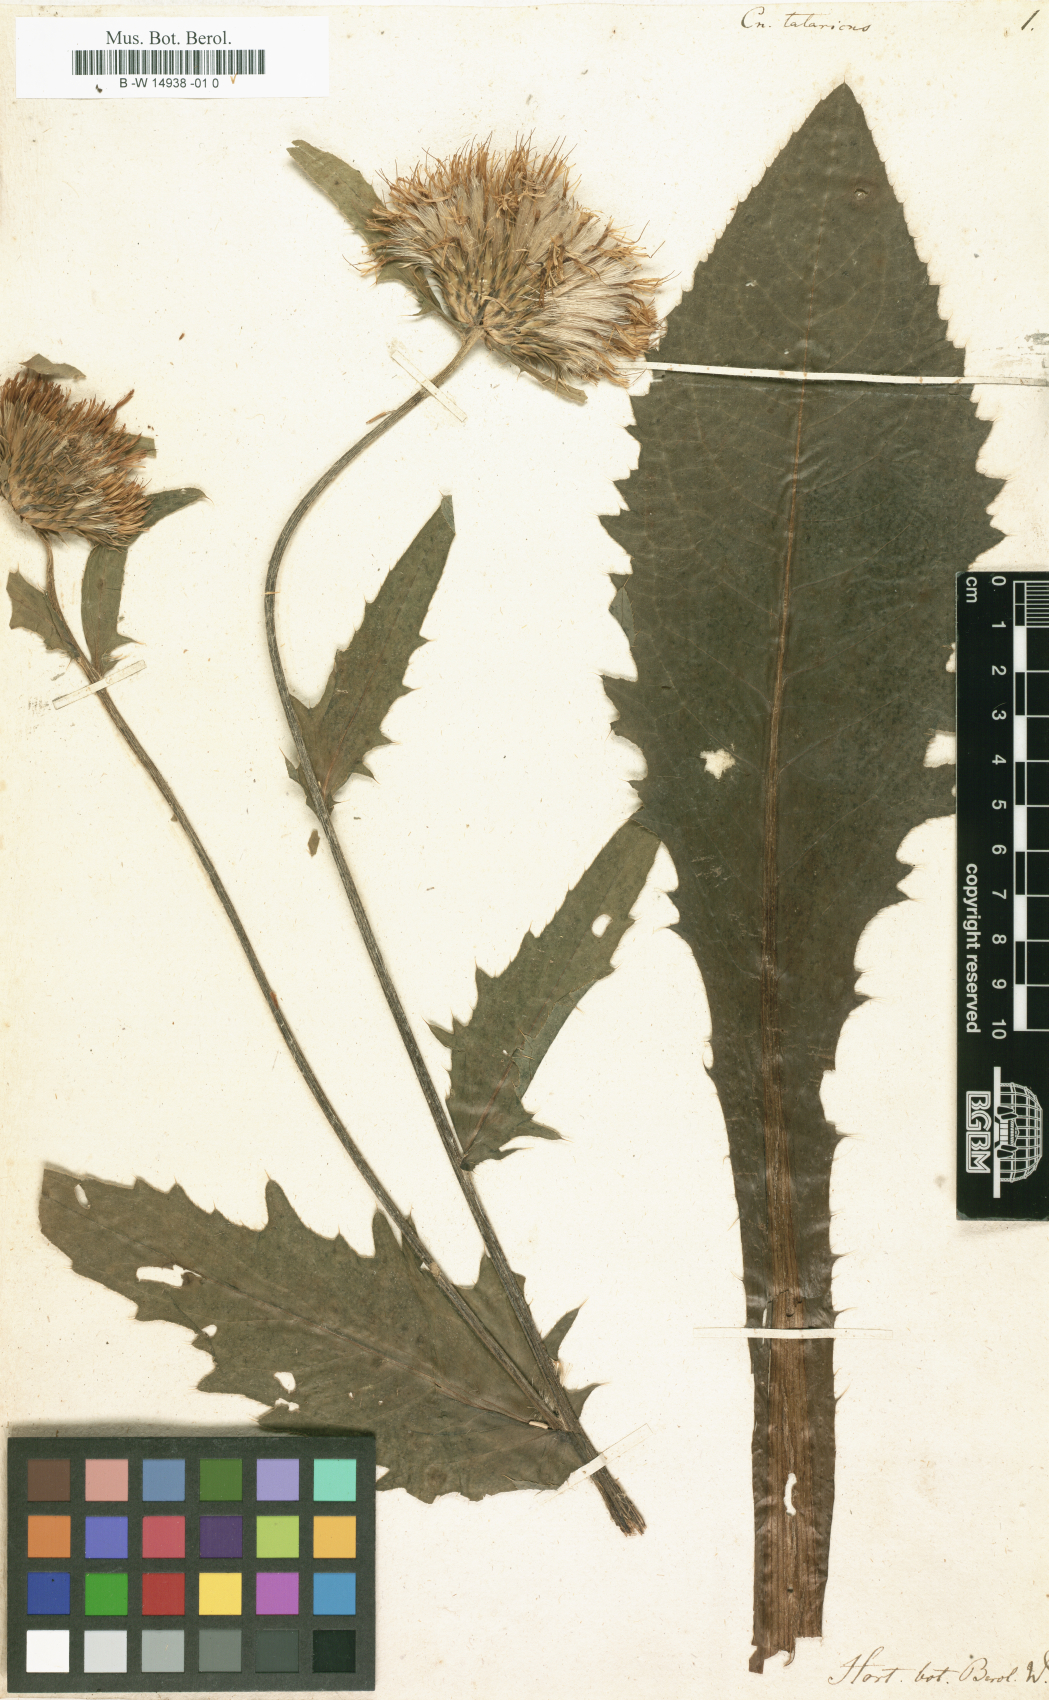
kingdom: Plantae
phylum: Tracheophyta
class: Magnoliopsida
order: Asterales
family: Asteraceae
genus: Cirsium
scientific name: Cirsium canum x oleraceum
